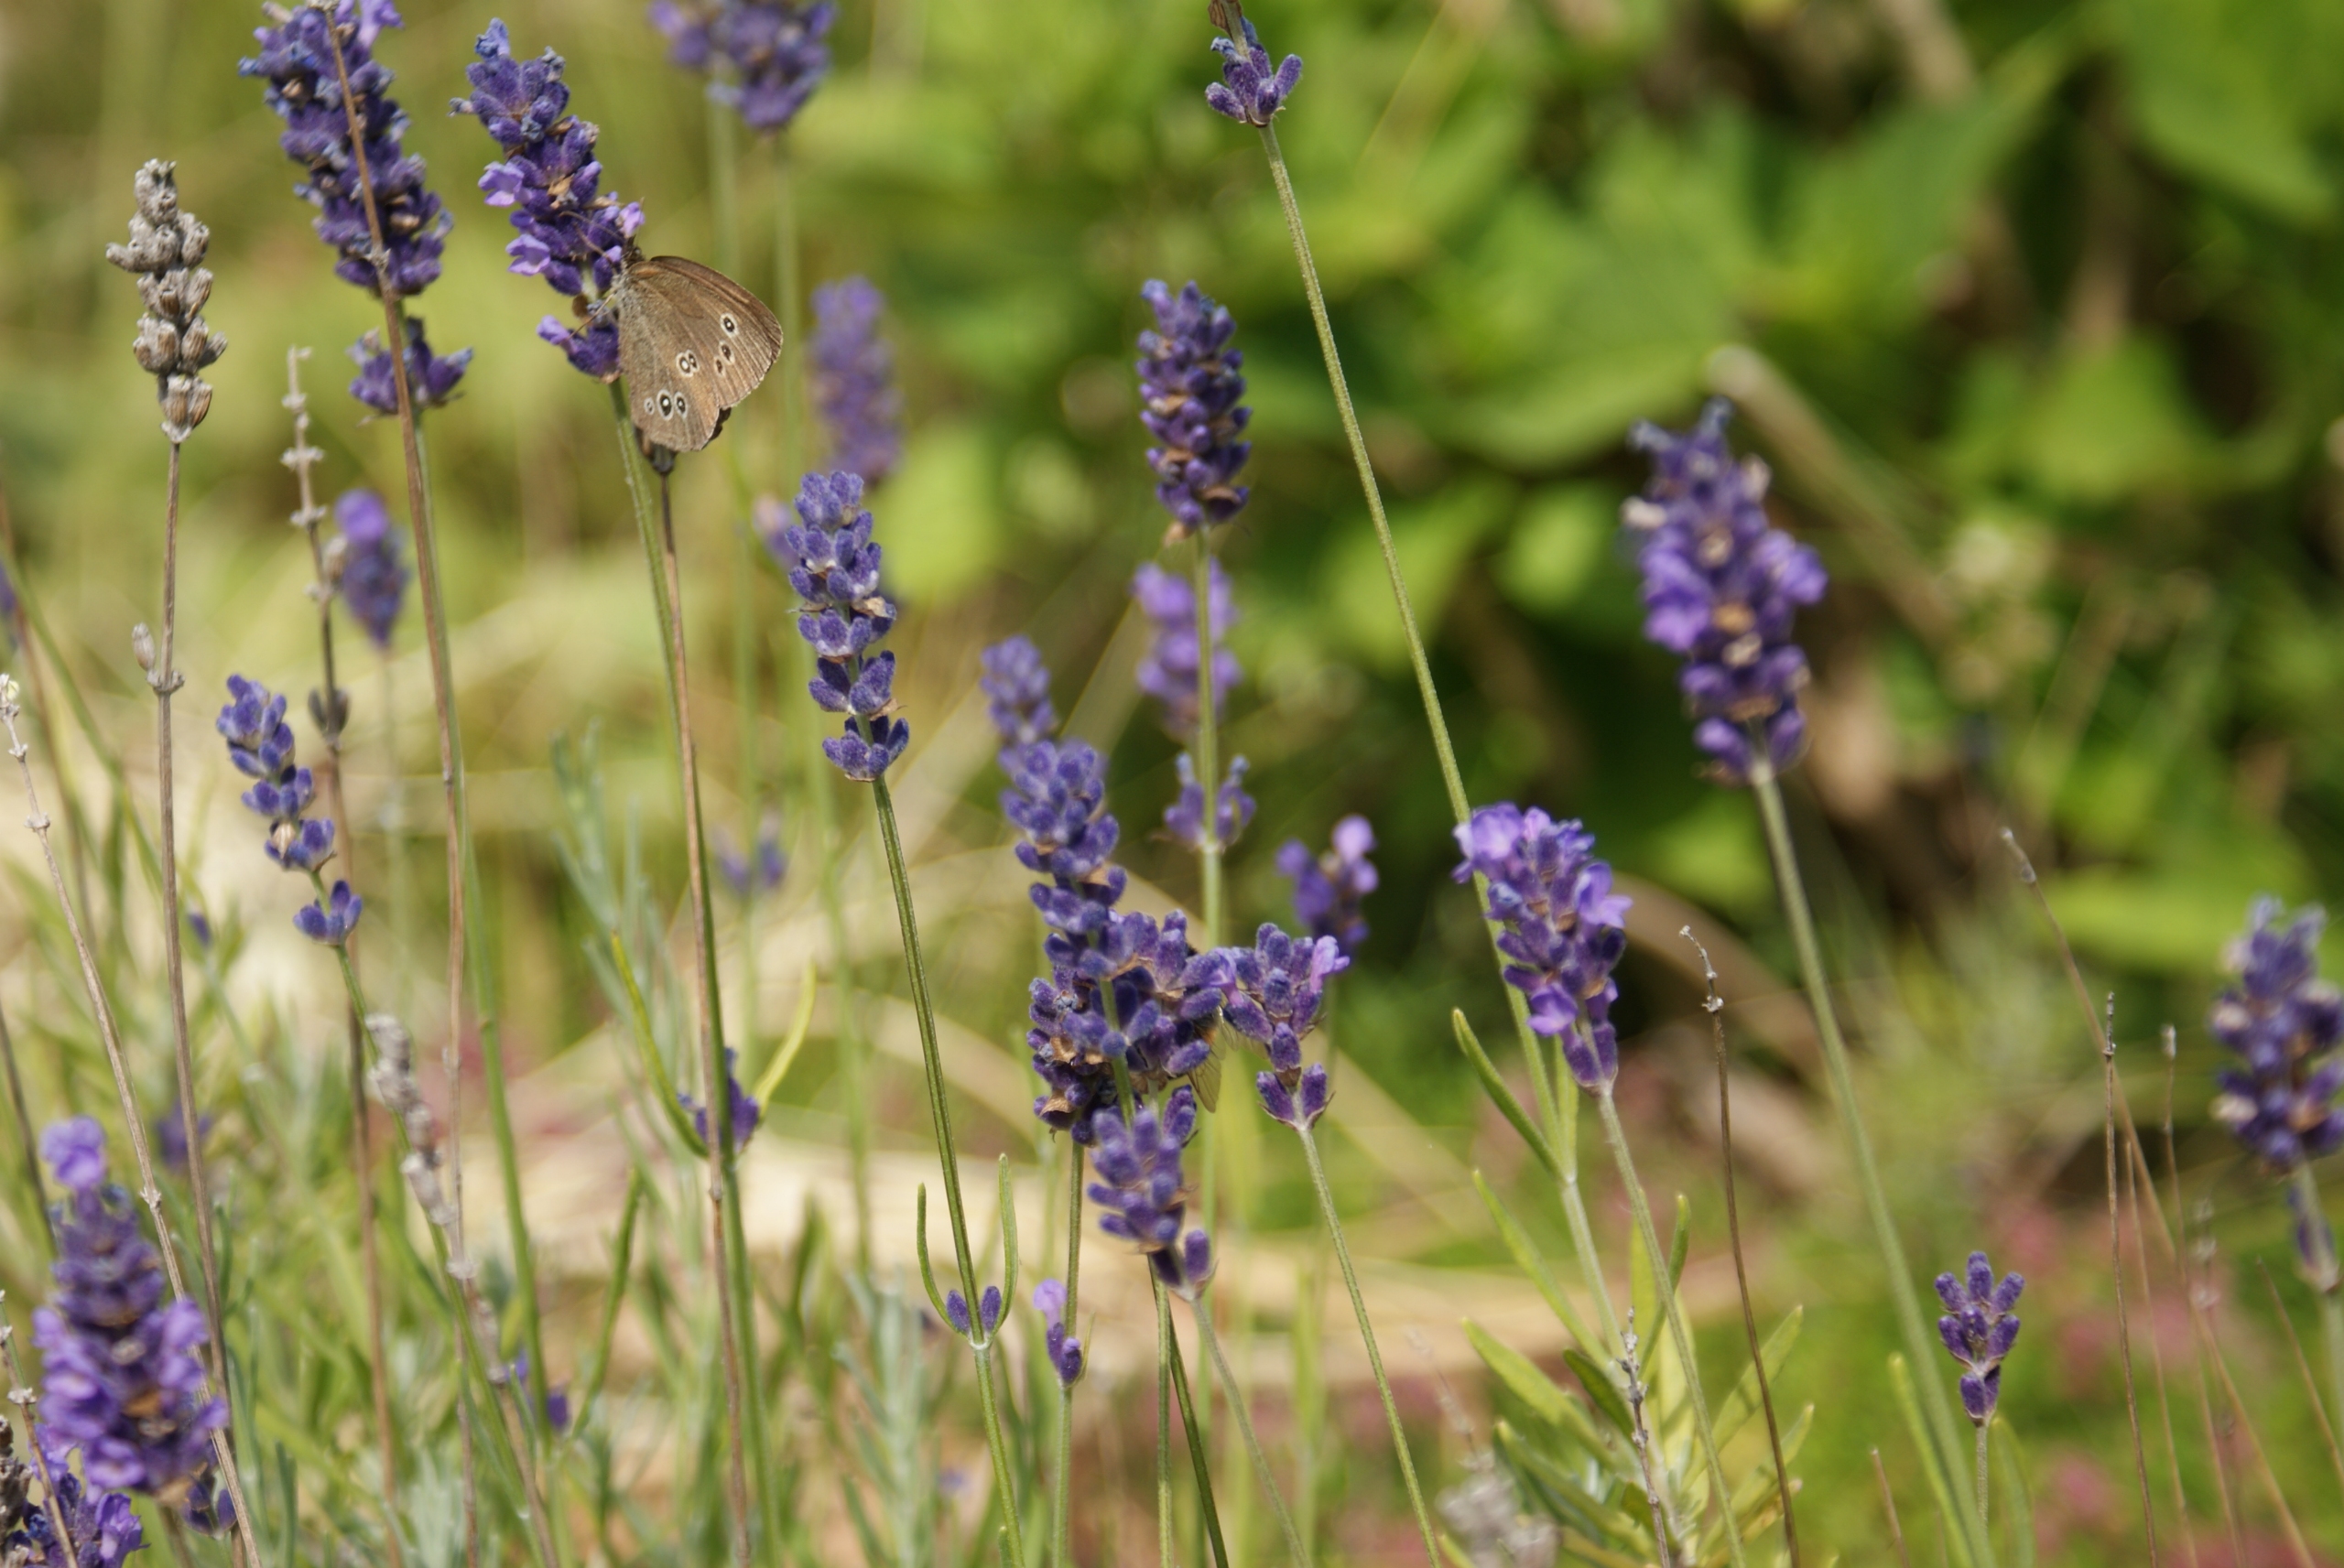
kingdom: Animalia
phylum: Arthropoda
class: Insecta
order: Lepidoptera
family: Nymphalidae
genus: Aphantopus
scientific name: Aphantopus hyperantus
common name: Engrandøje
